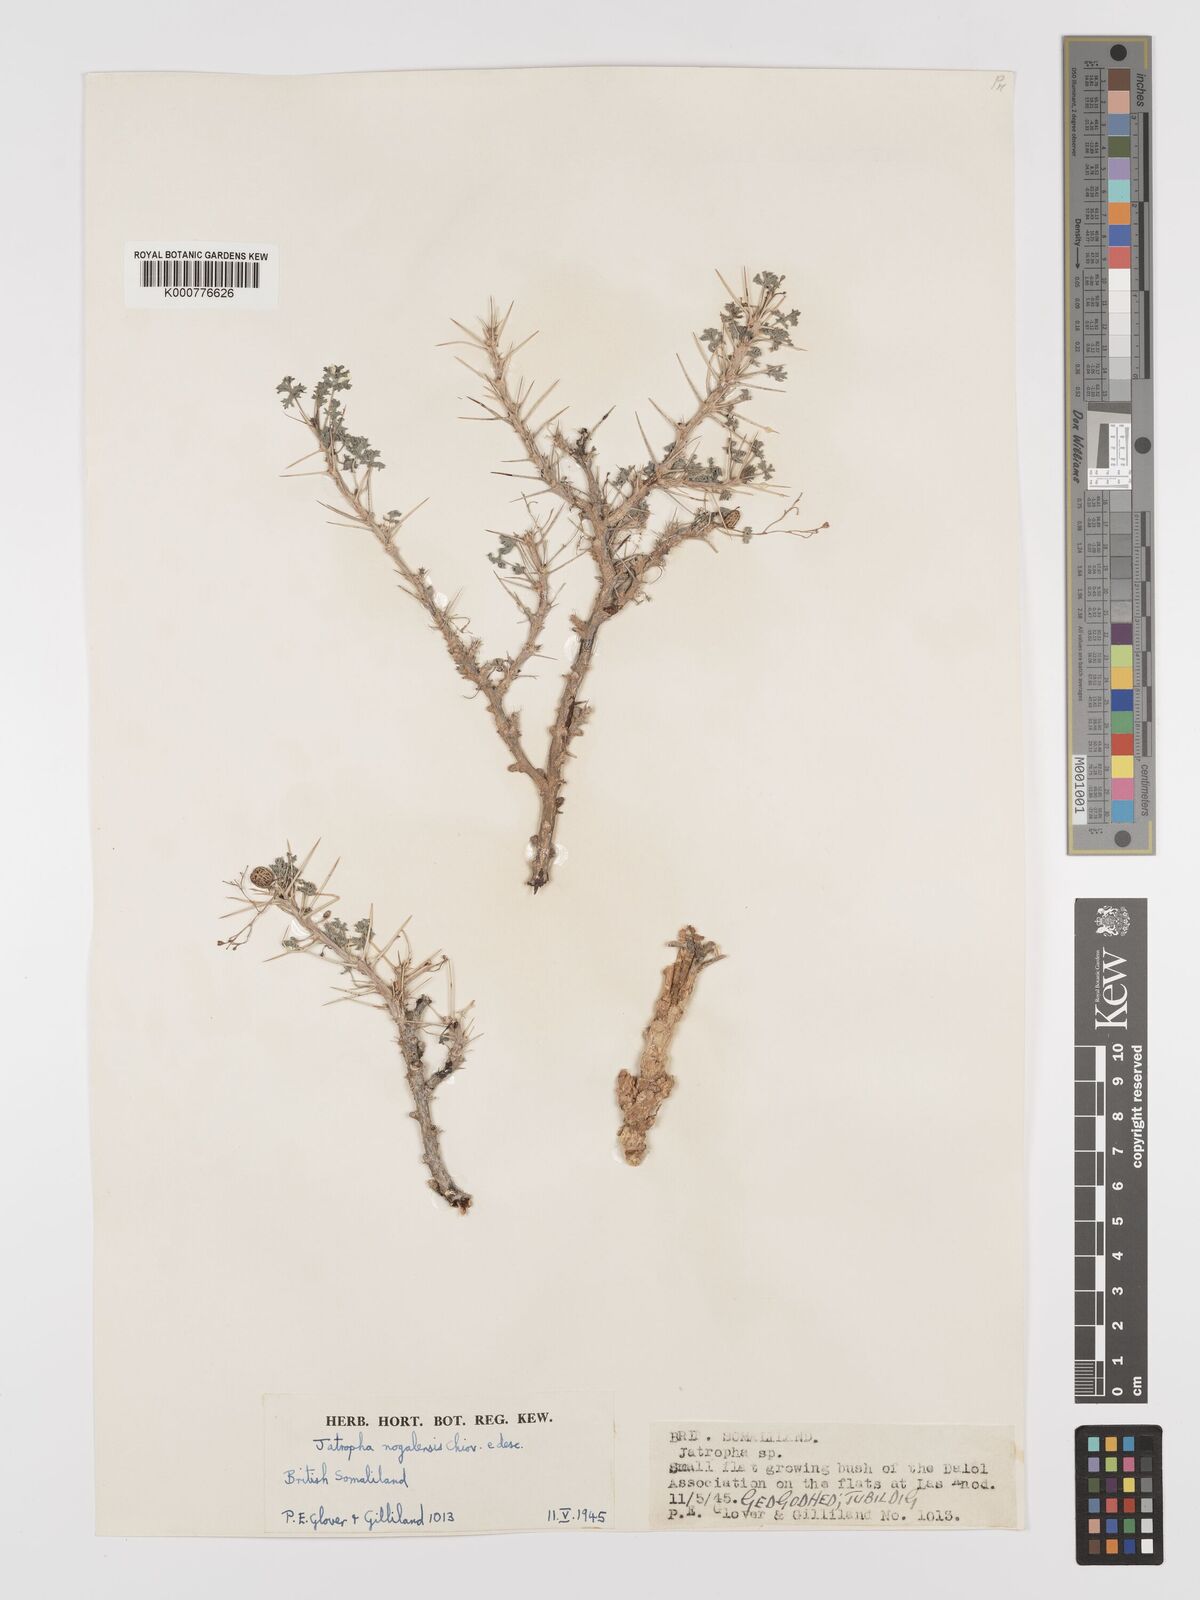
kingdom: Plantae
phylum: Tracheophyta
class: Magnoliopsida
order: Malpighiales
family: Euphorbiaceae
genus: Jatropha
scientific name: Jatropha nogalensis
